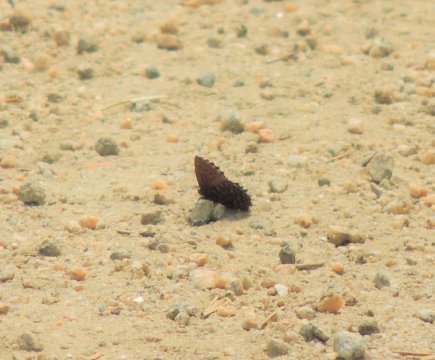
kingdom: Animalia
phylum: Arthropoda
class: Insecta
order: Lepidoptera
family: Lycaenidae
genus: Incisalia
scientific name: Incisalia eryphon
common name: Western Pine Elfin
